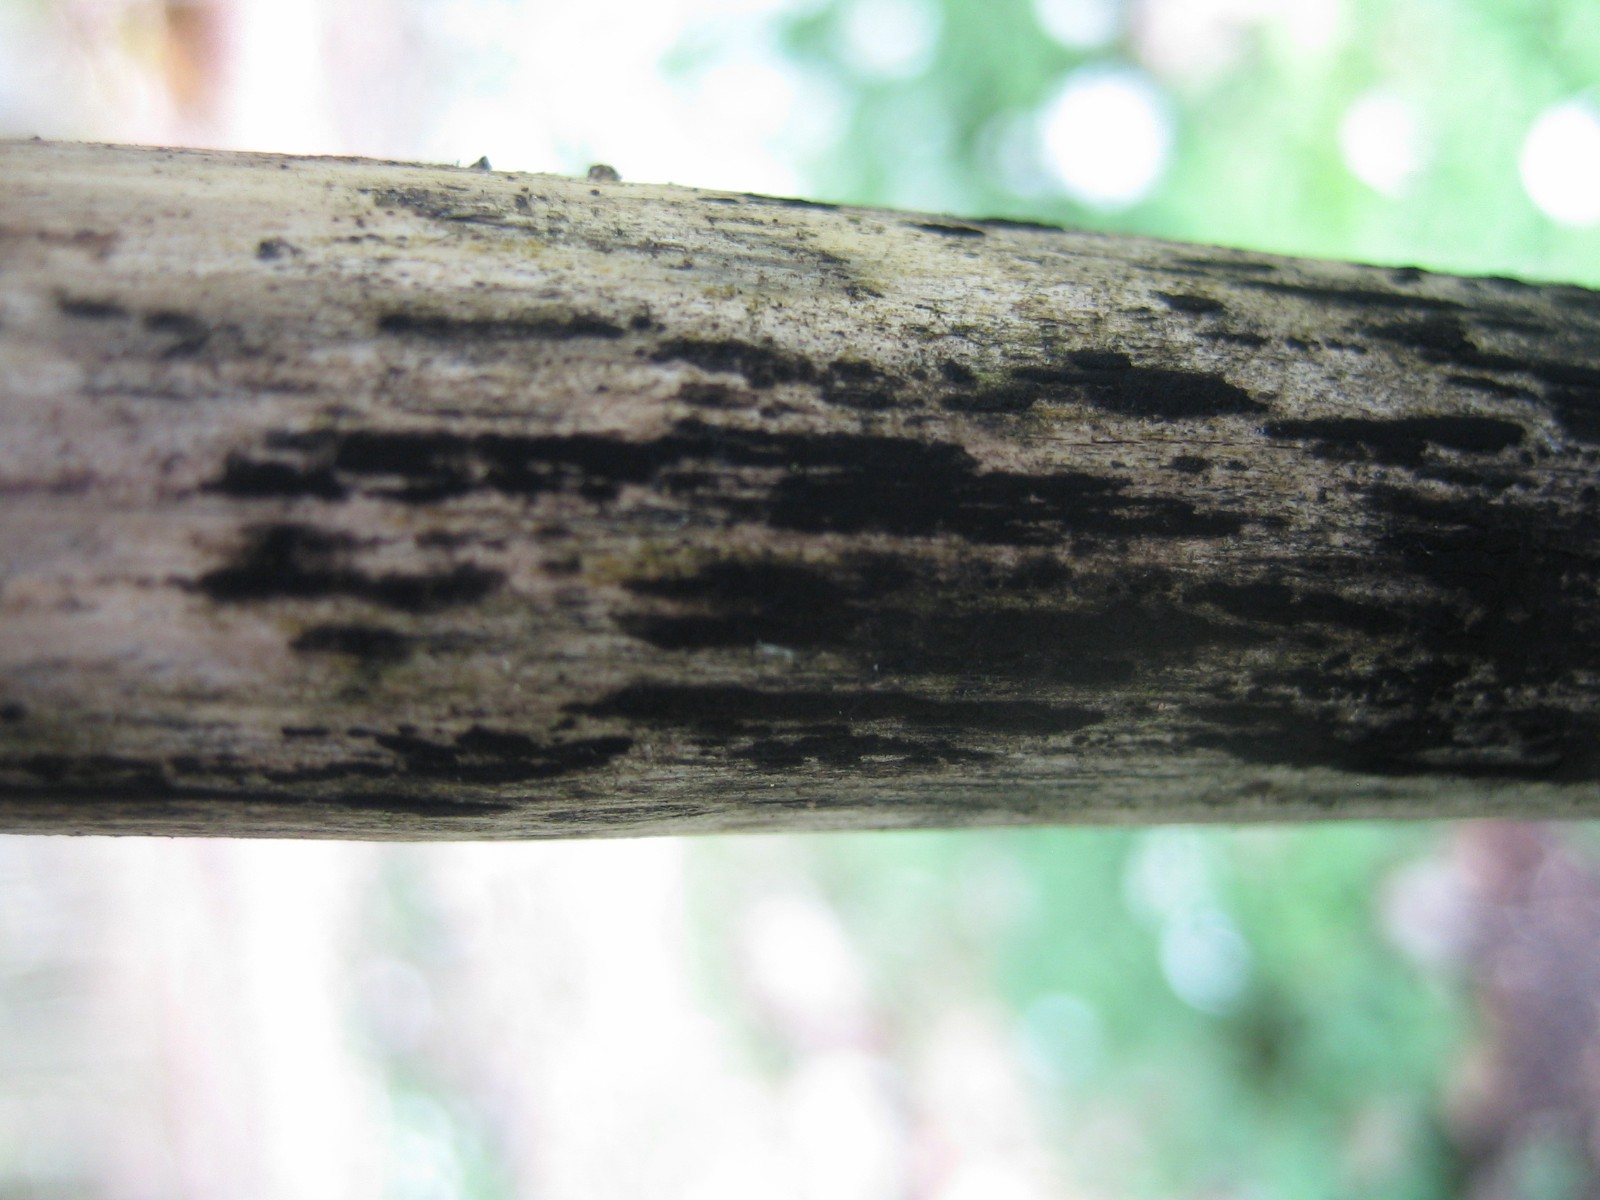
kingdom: Fungi
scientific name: Fungi
